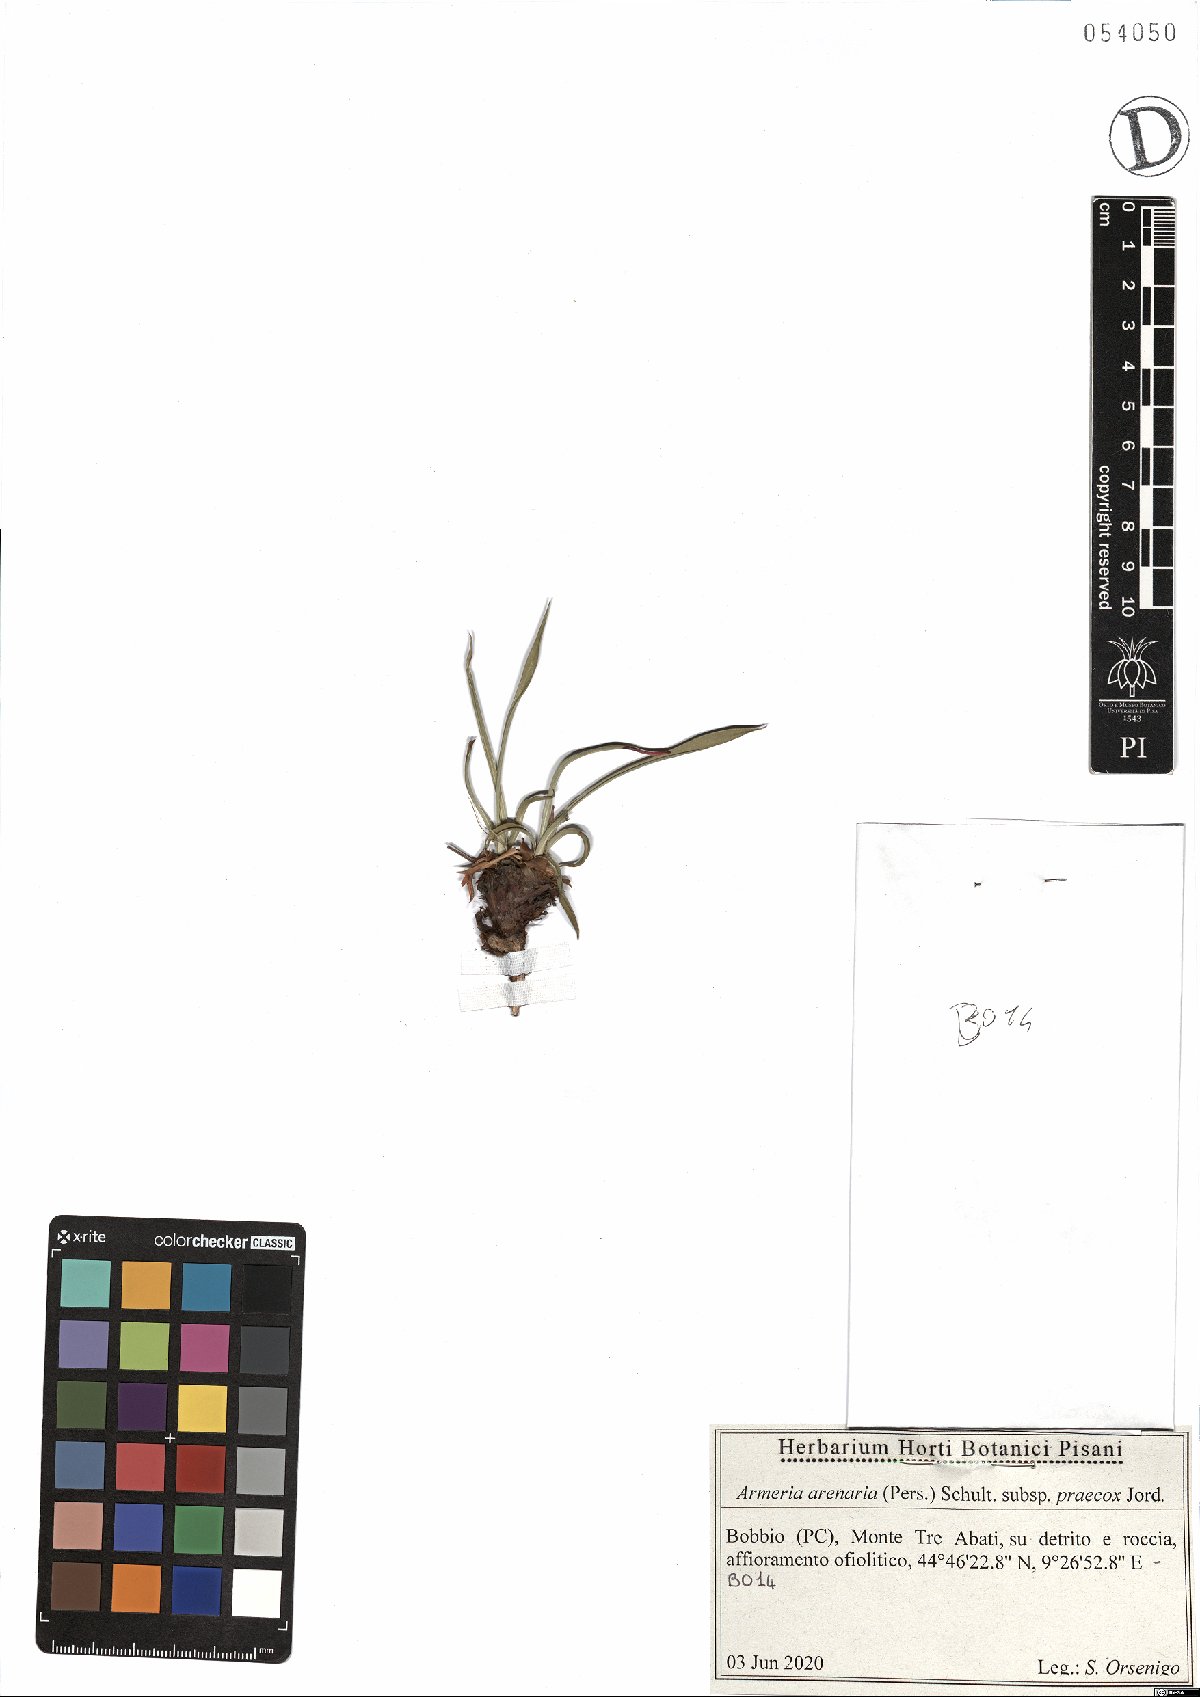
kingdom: Plantae
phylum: Tracheophyta
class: Magnoliopsida
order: Caryophyllales
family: Plumbaginaceae
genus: Armeria
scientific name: Armeria arenaria
